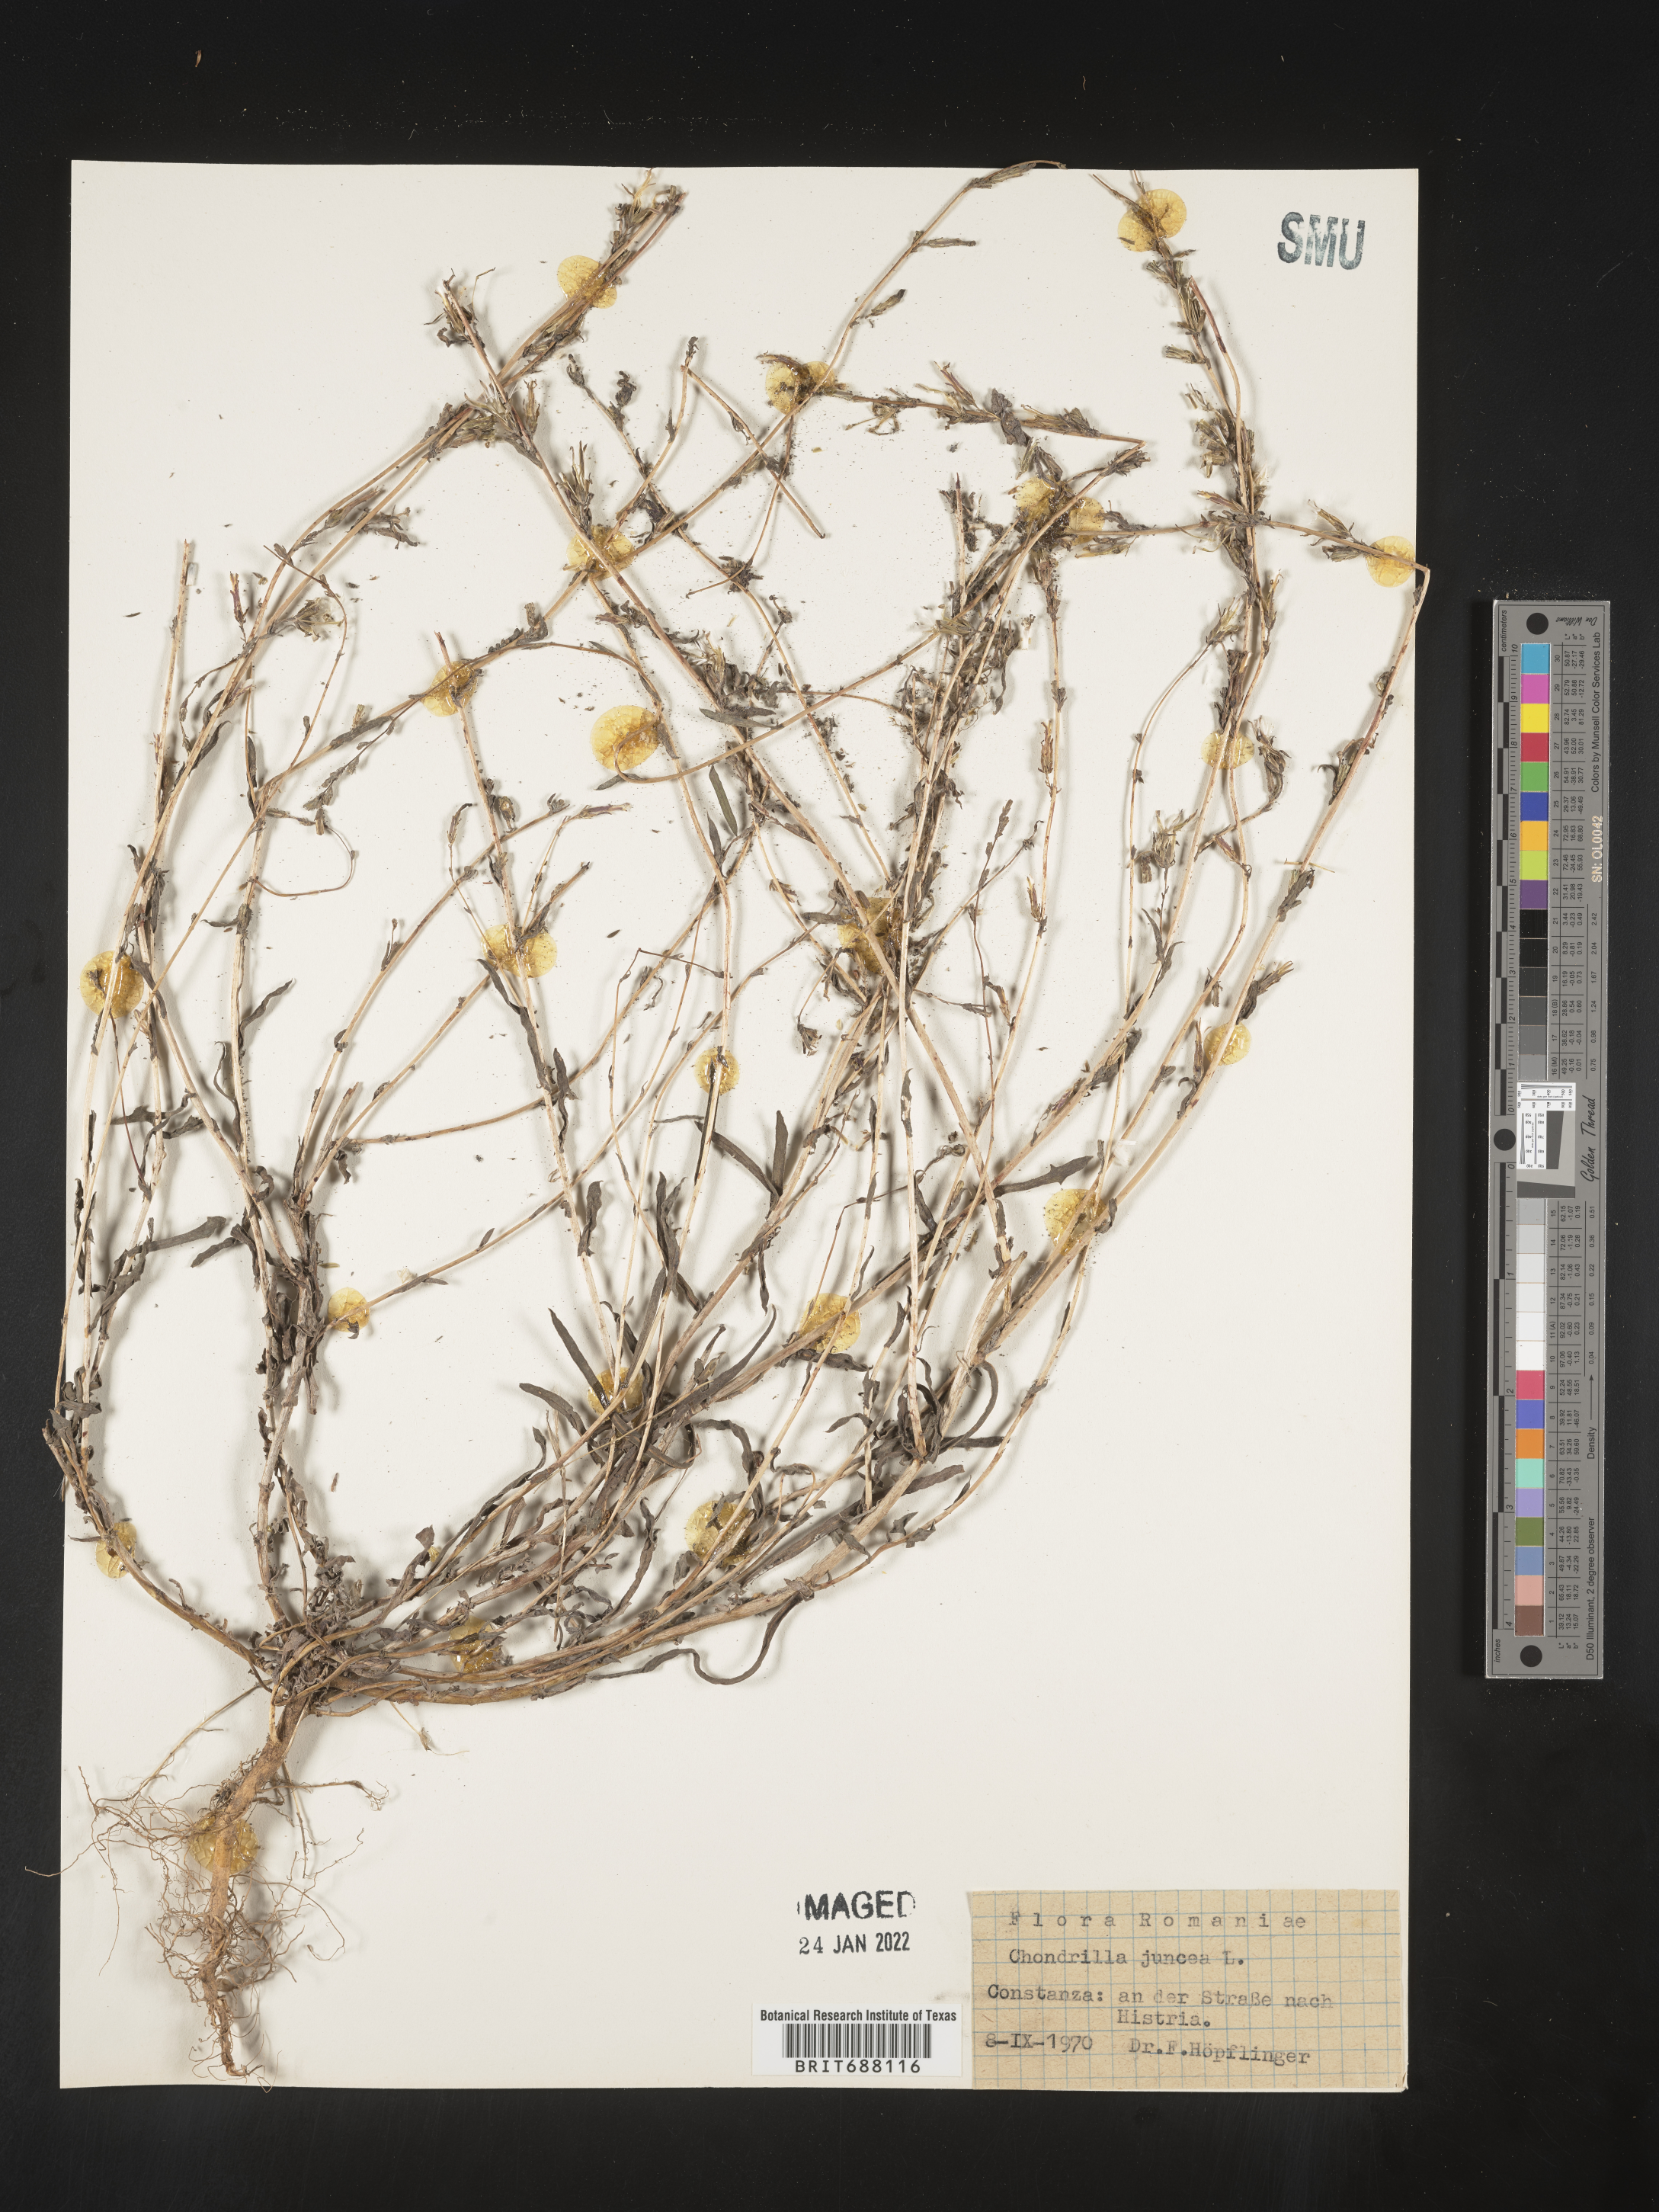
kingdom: Plantae
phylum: Tracheophyta
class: Magnoliopsida
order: Asterales
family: Asteraceae
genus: Chondrilla
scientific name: Chondrilla
